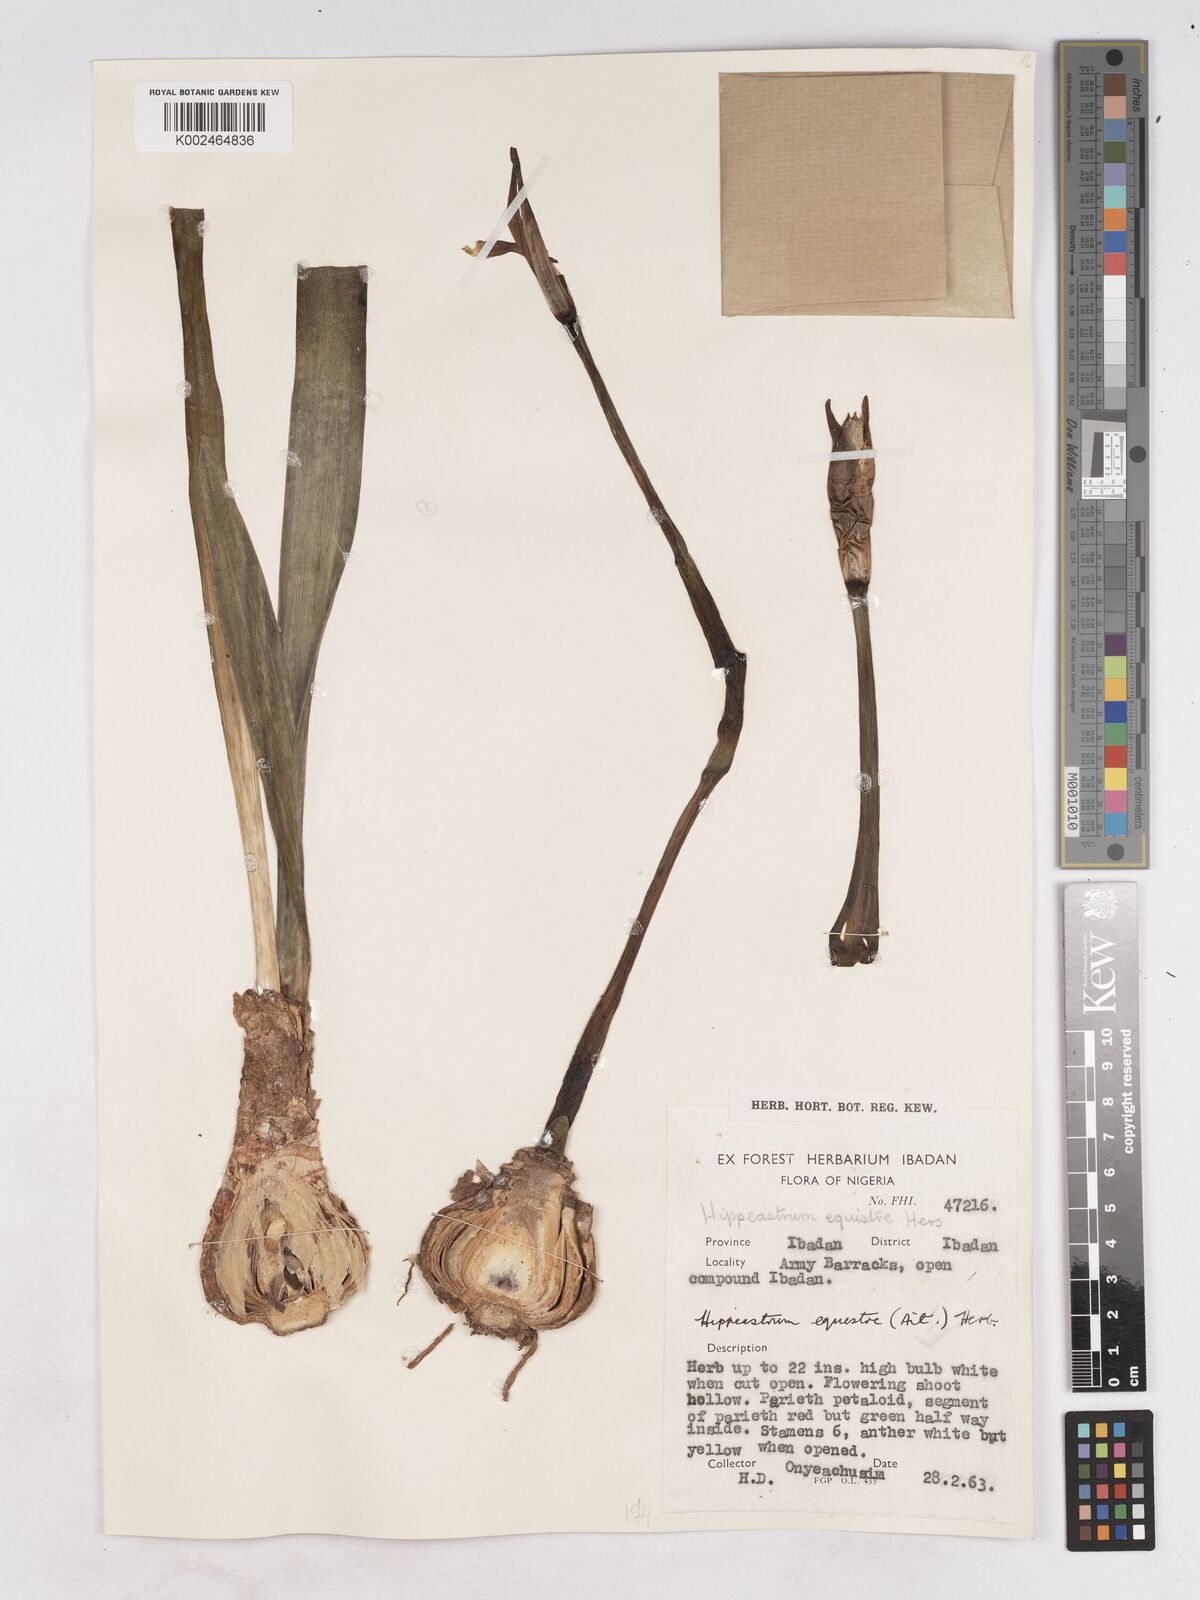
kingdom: Plantae
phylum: Tracheophyta
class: Liliopsida
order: Asparagales
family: Amaryllidaceae
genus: Hippeastrum
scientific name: Hippeastrum puniceum
